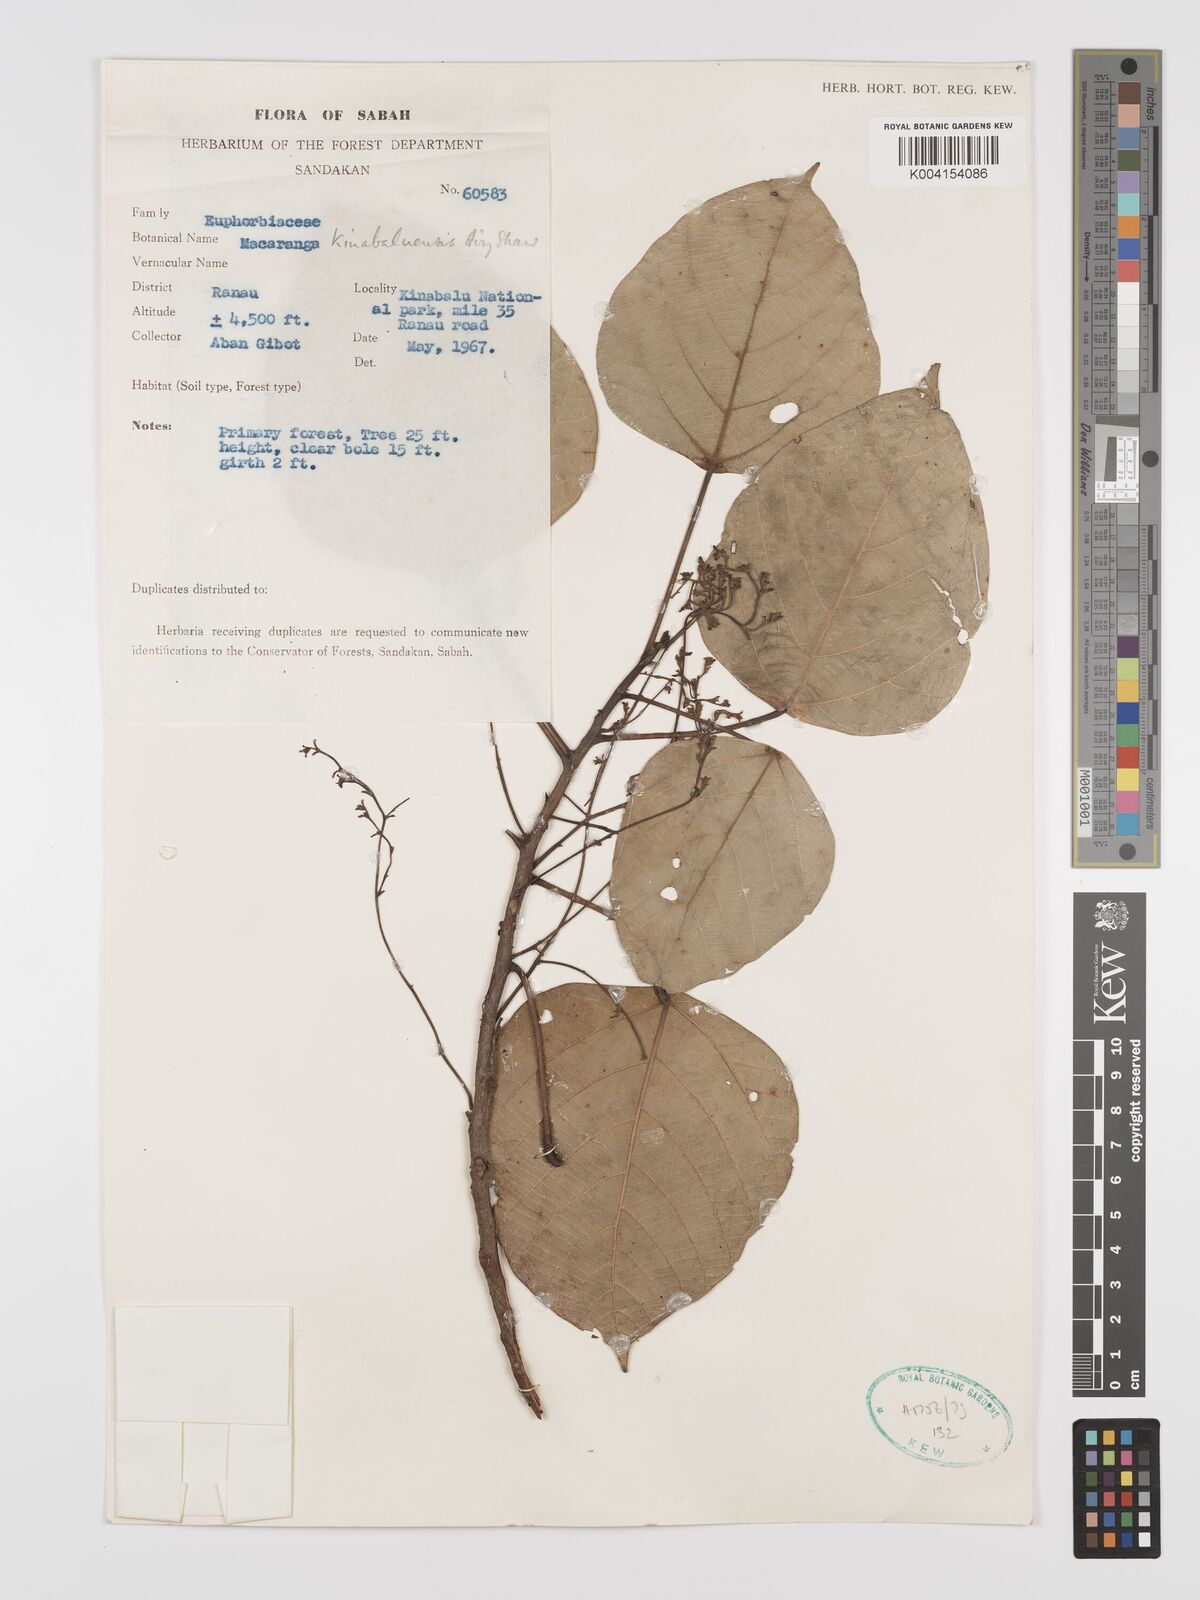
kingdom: Plantae
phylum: Tracheophyta
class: Magnoliopsida
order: Malpighiales
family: Euphorbiaceae
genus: Macaranga
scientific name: Macaranga kinabaluensis
